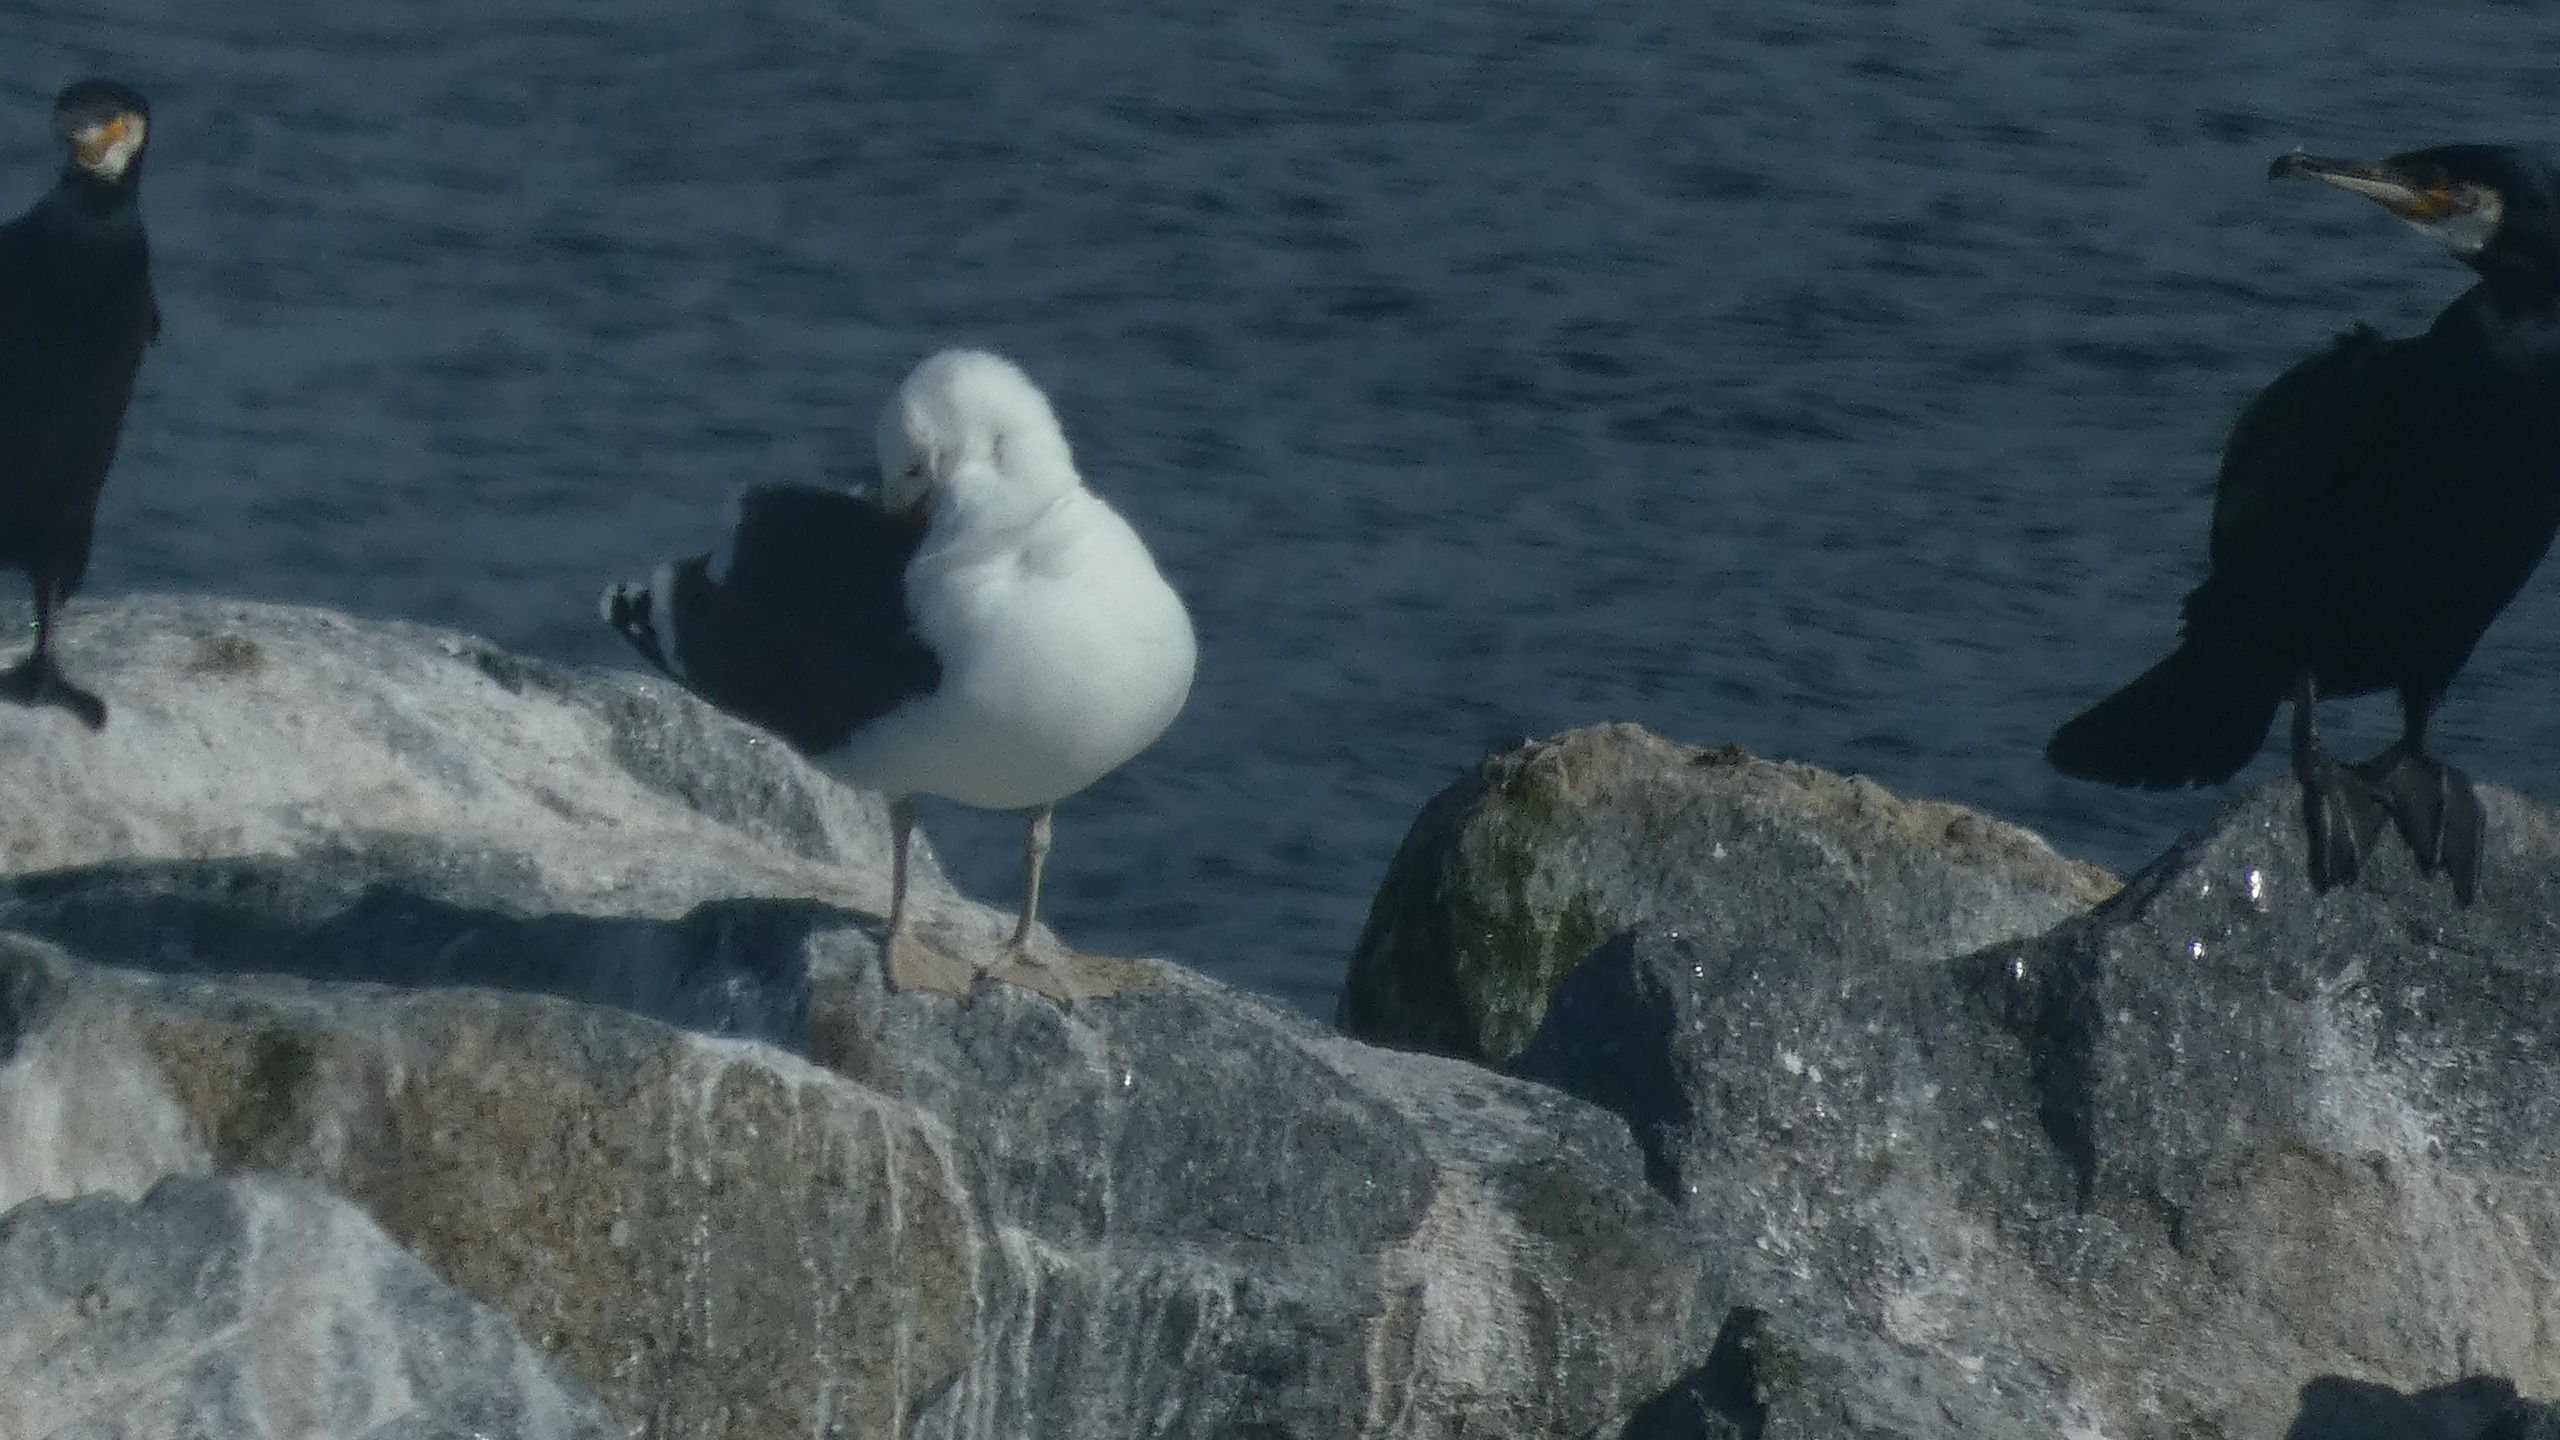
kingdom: Animalia
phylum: Chordata
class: Aves
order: Charadriiformes
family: Laridae
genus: Larus
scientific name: Larus marinus
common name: Svartbag
